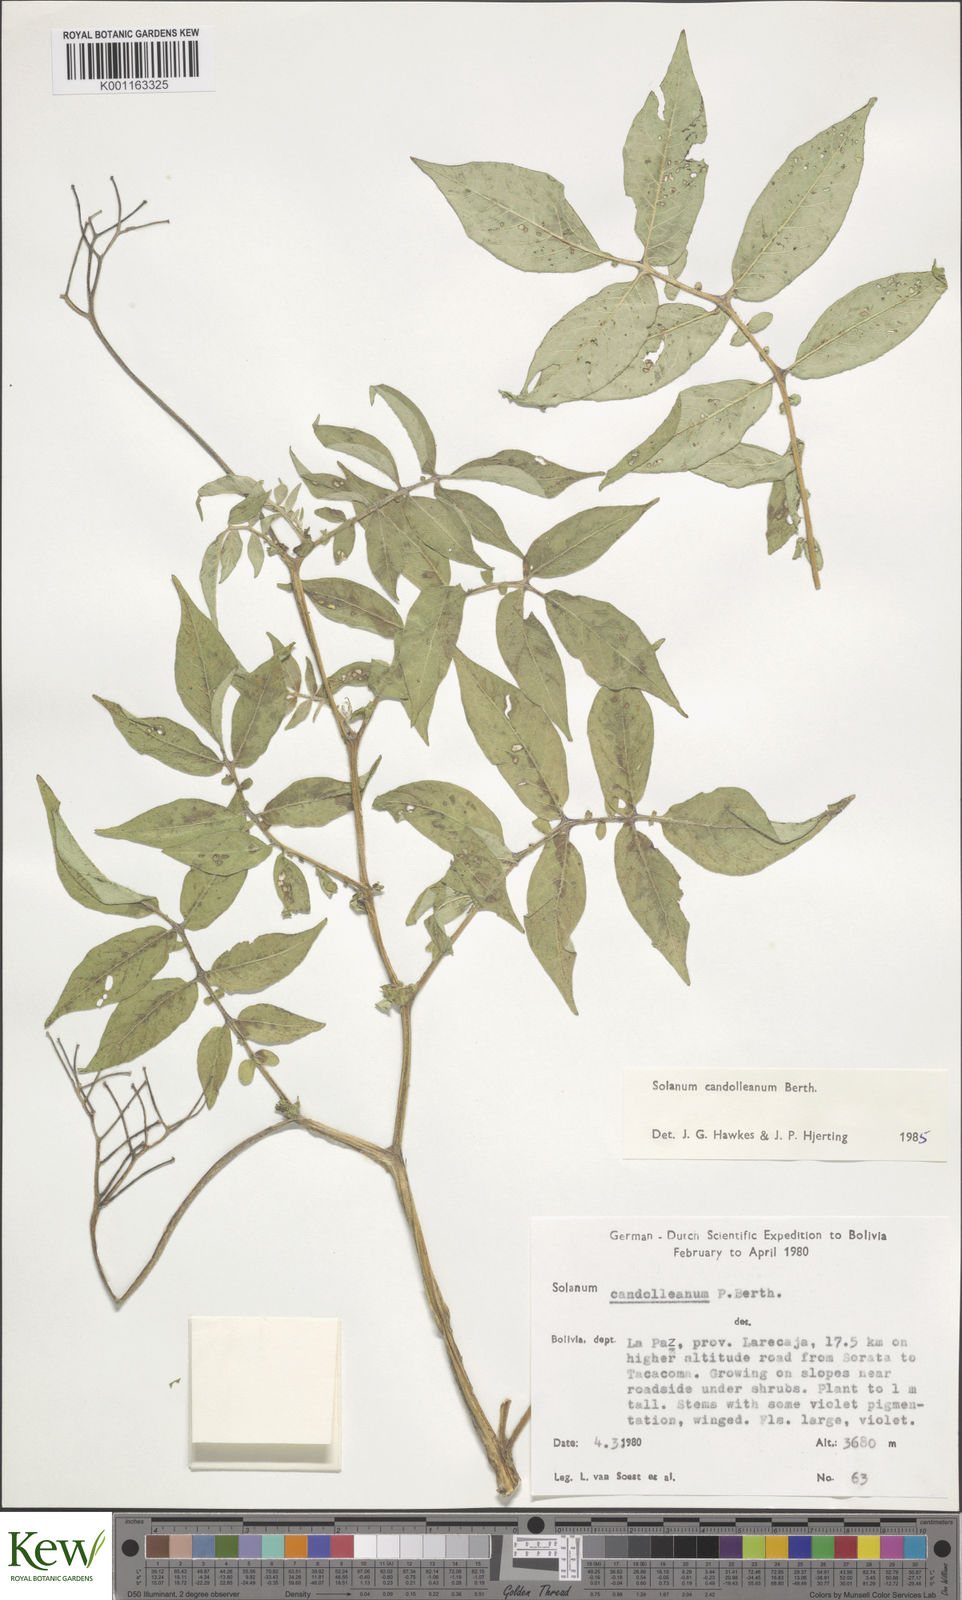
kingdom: Plantae
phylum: Tracheophyta
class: Magnoliopsida
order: Solanales
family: Solanaceae
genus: Solanum
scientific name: Solanum candolleanum
